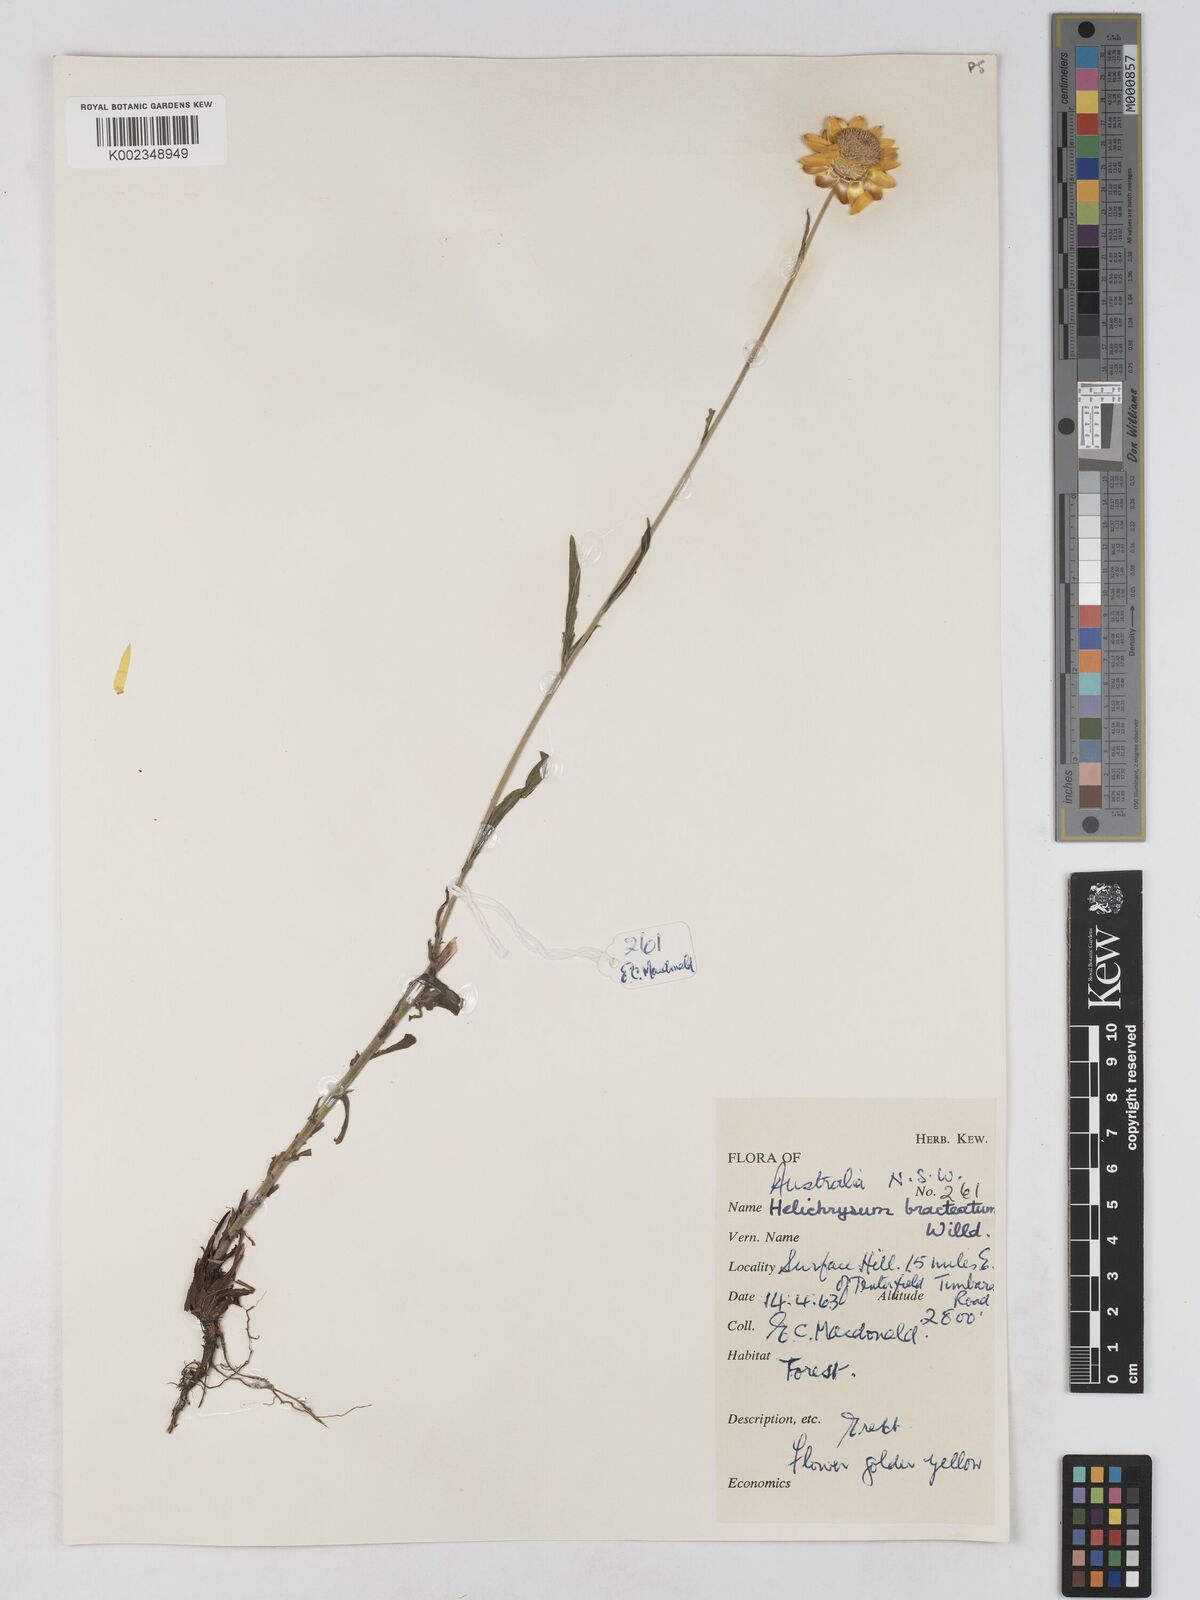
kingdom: Plantae
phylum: Tracheophyta
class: Magnoliopsida
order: Asterales
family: Asteraceae
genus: Xerochrysum
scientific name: Xerochrysum bracteatum
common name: Bracted strawflower
